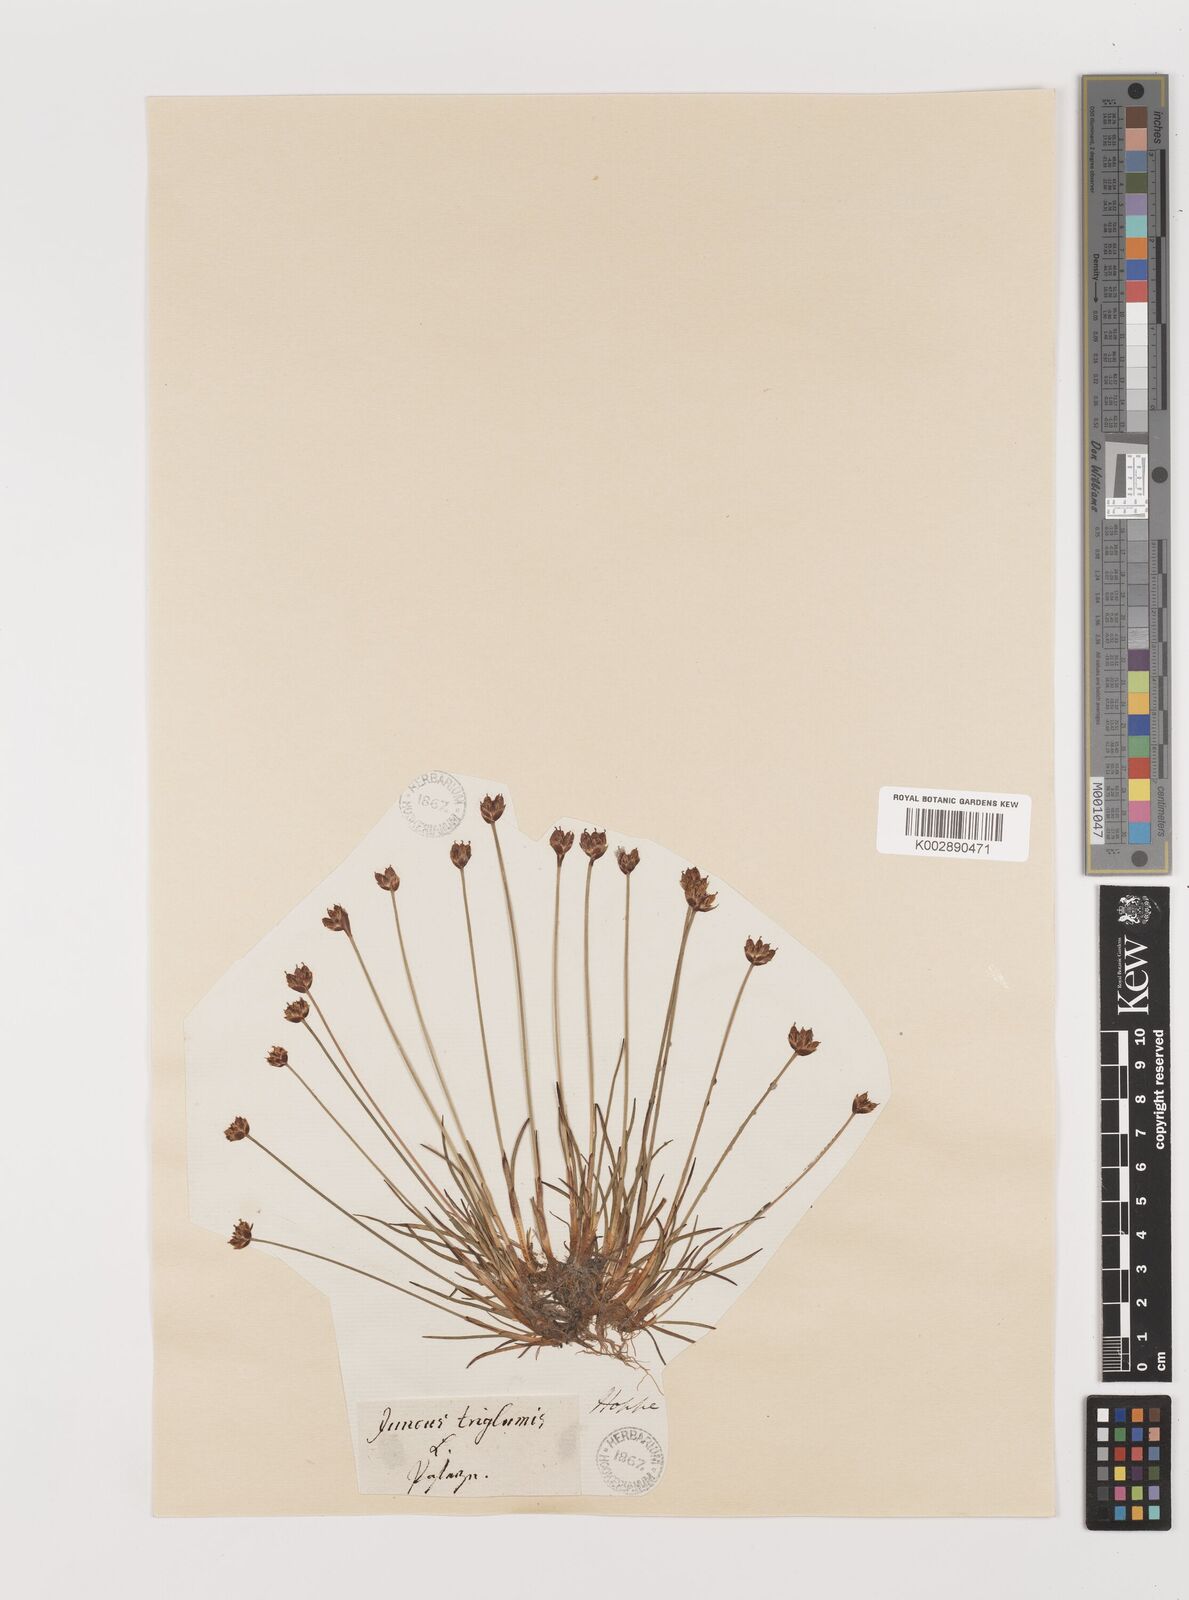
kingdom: Plantae
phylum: Tracheophyta
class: Liliopsida
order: Poales
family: Juncaceae
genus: Juncus
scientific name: Juncus triglumis
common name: Three-flowered rush
